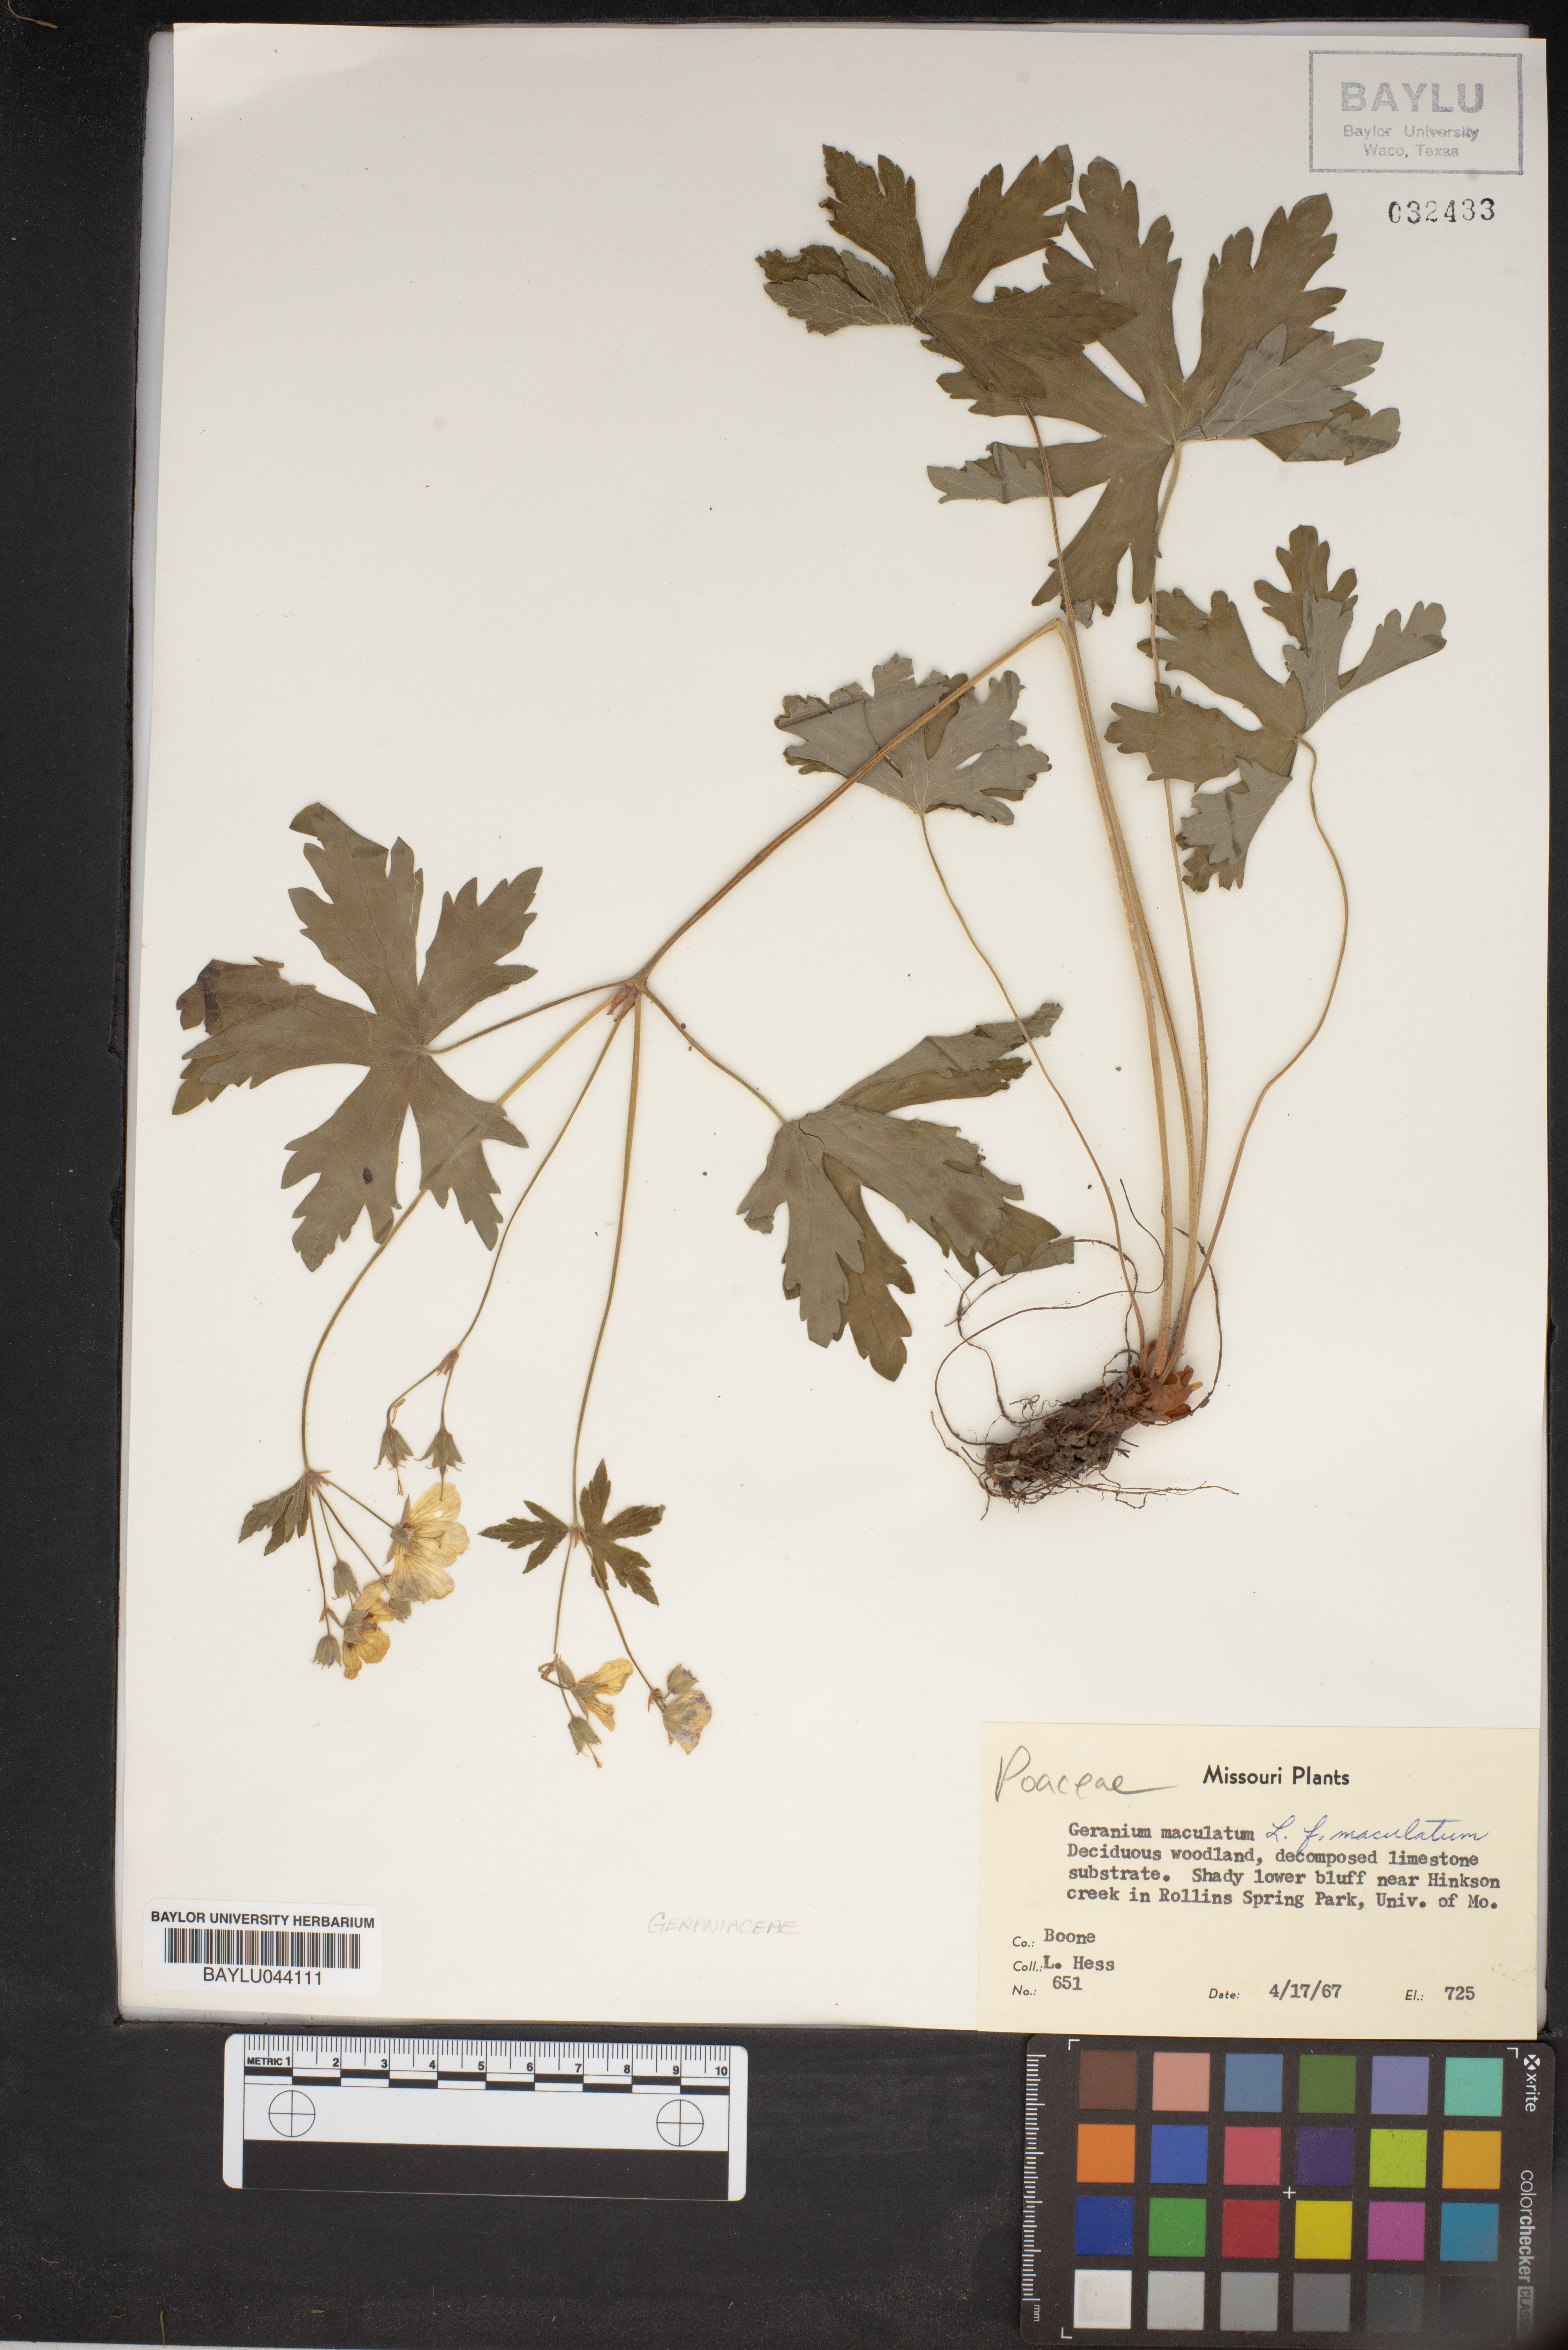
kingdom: Plantae
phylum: Tracheophyta
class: Magnoliopsida
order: Geraniales
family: Geraniaceae
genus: Geranium
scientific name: Geranium maculatum
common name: Spotted geranium
